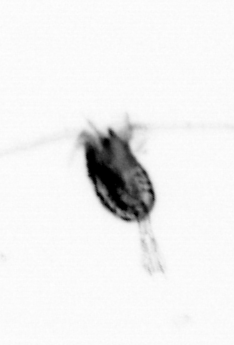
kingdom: Animalia
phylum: Arthropoda
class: Copepoda
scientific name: Copepoda
